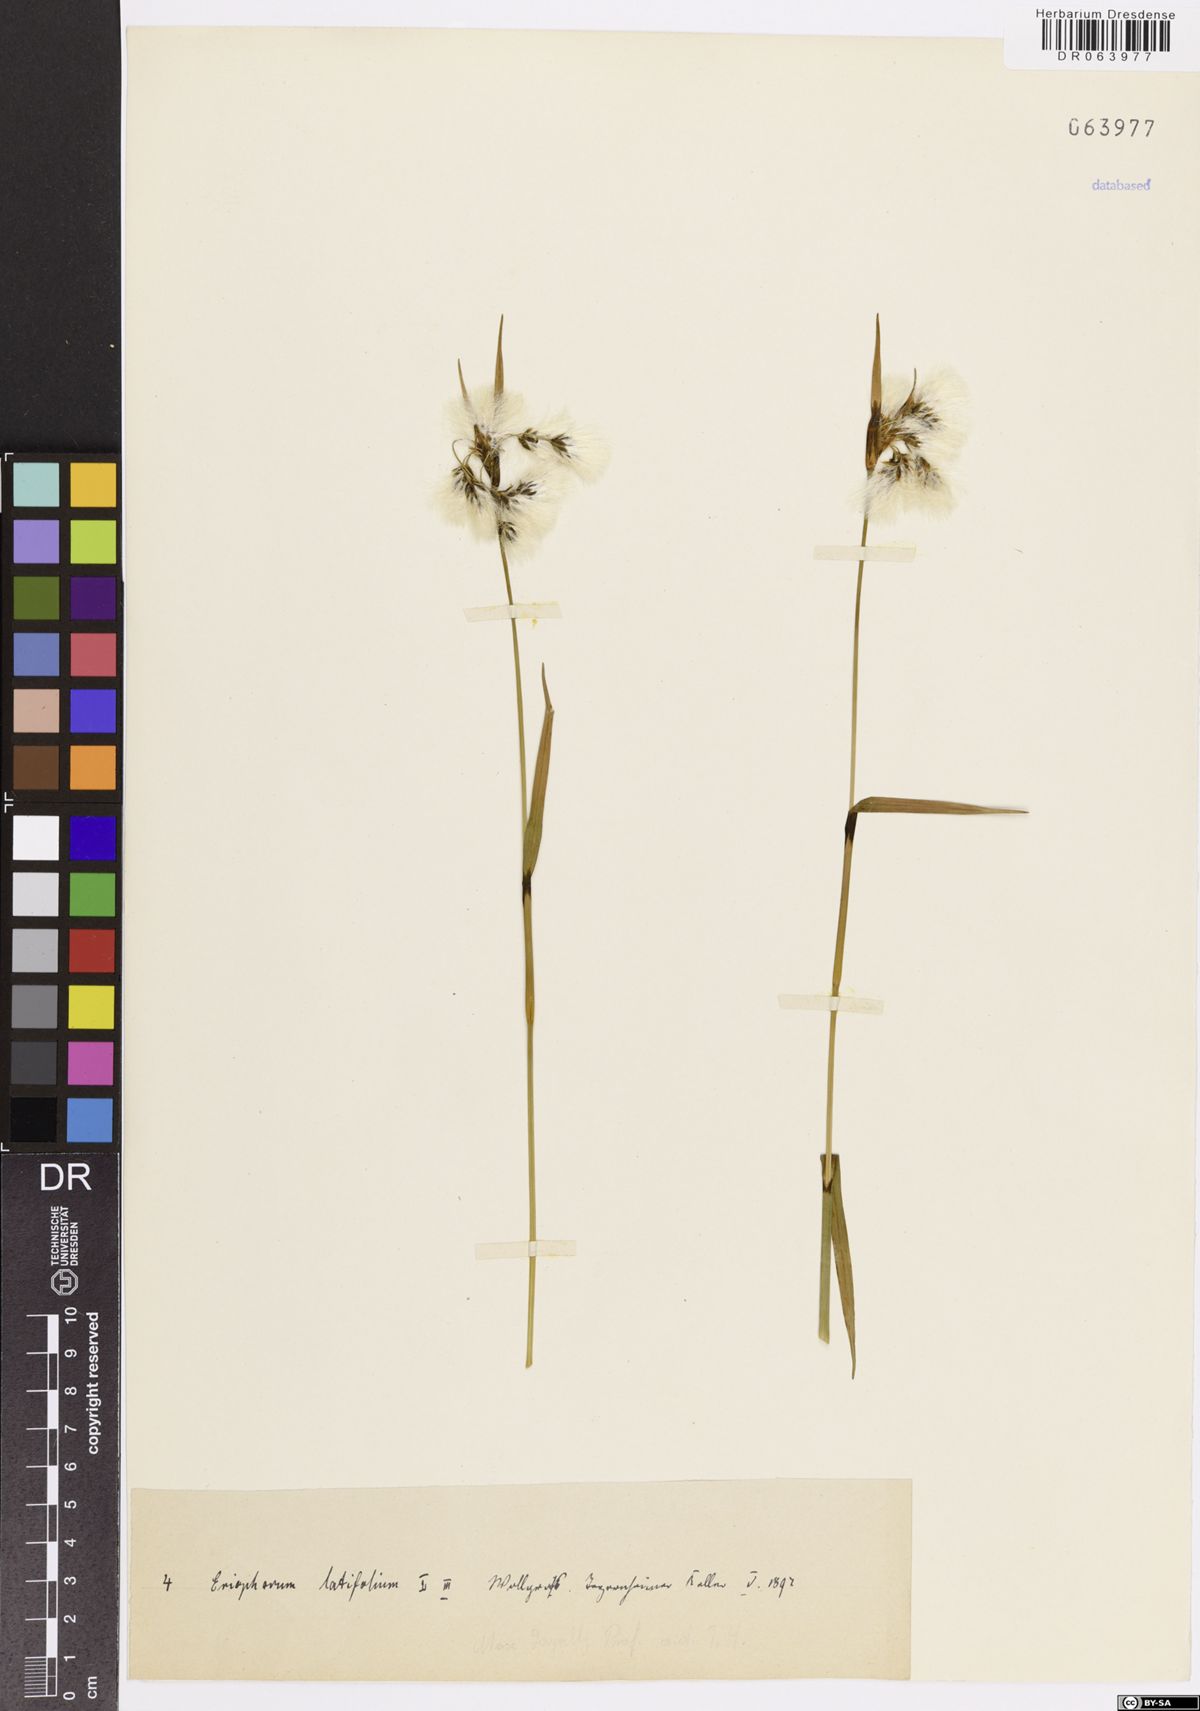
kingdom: Plantae
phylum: Tracheophyta
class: Liliopsida
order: Poales
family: Cyperaceae
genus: Eriophorum
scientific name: Eriophorum latifolium
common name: Broad-leaved cottongrass
